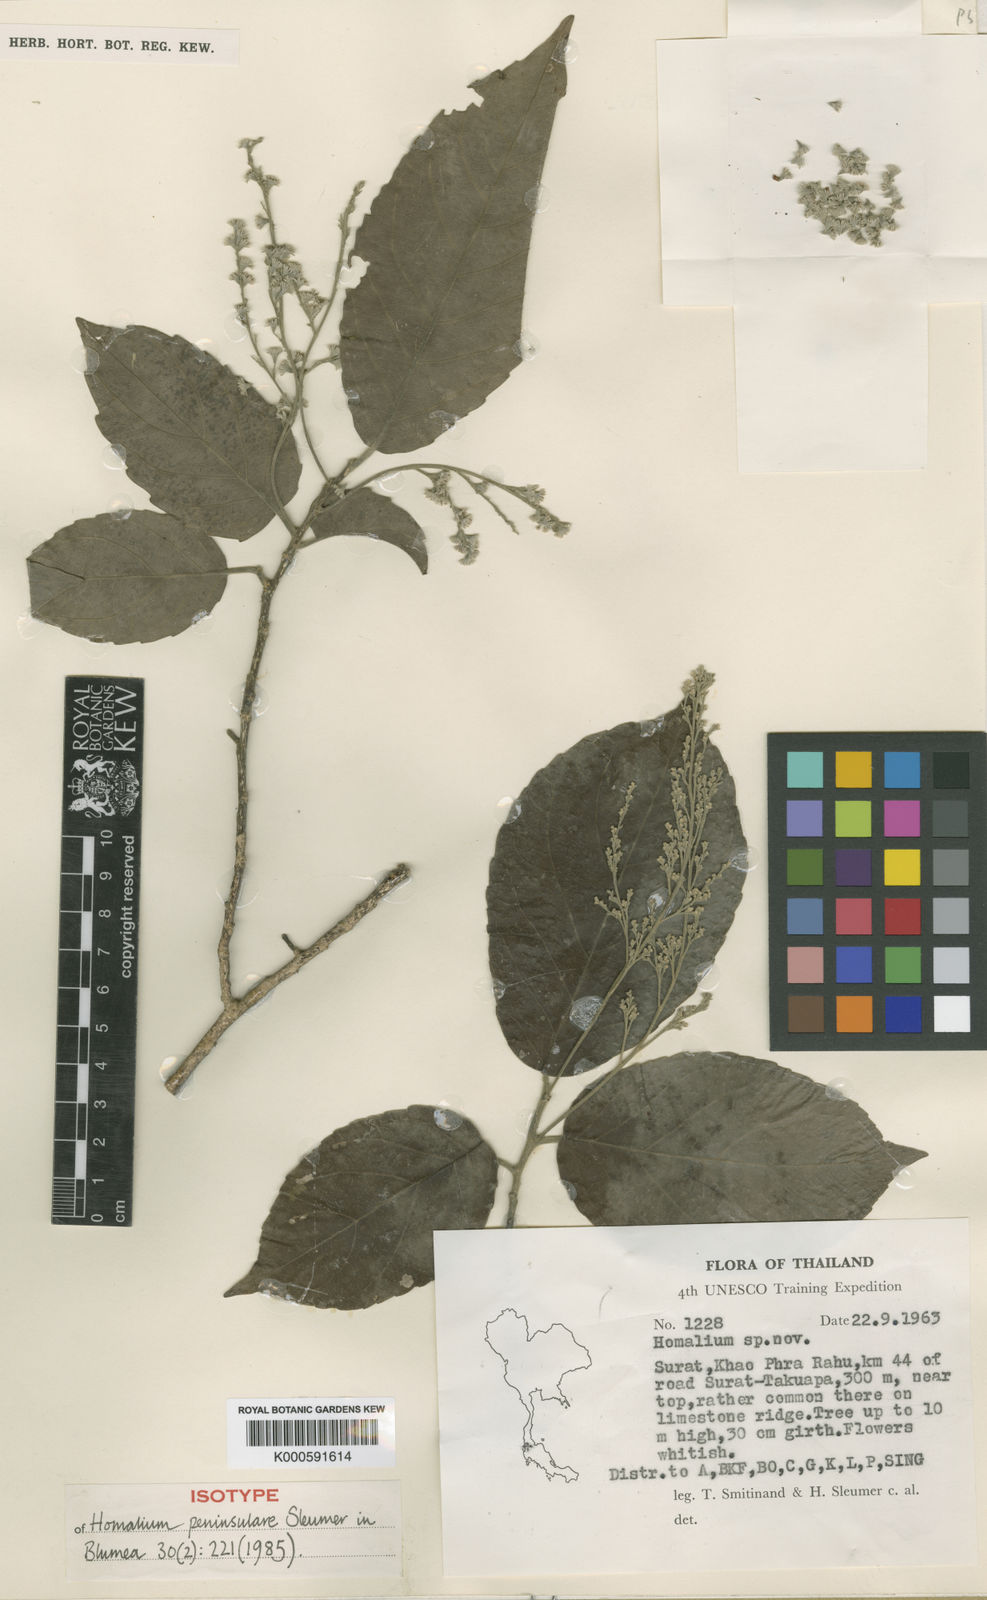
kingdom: Plantae
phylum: Tracheophyta
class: Magnoliopsida
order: Malpighiales
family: Salicaceae
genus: Homalium
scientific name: Homalium peninsulare
